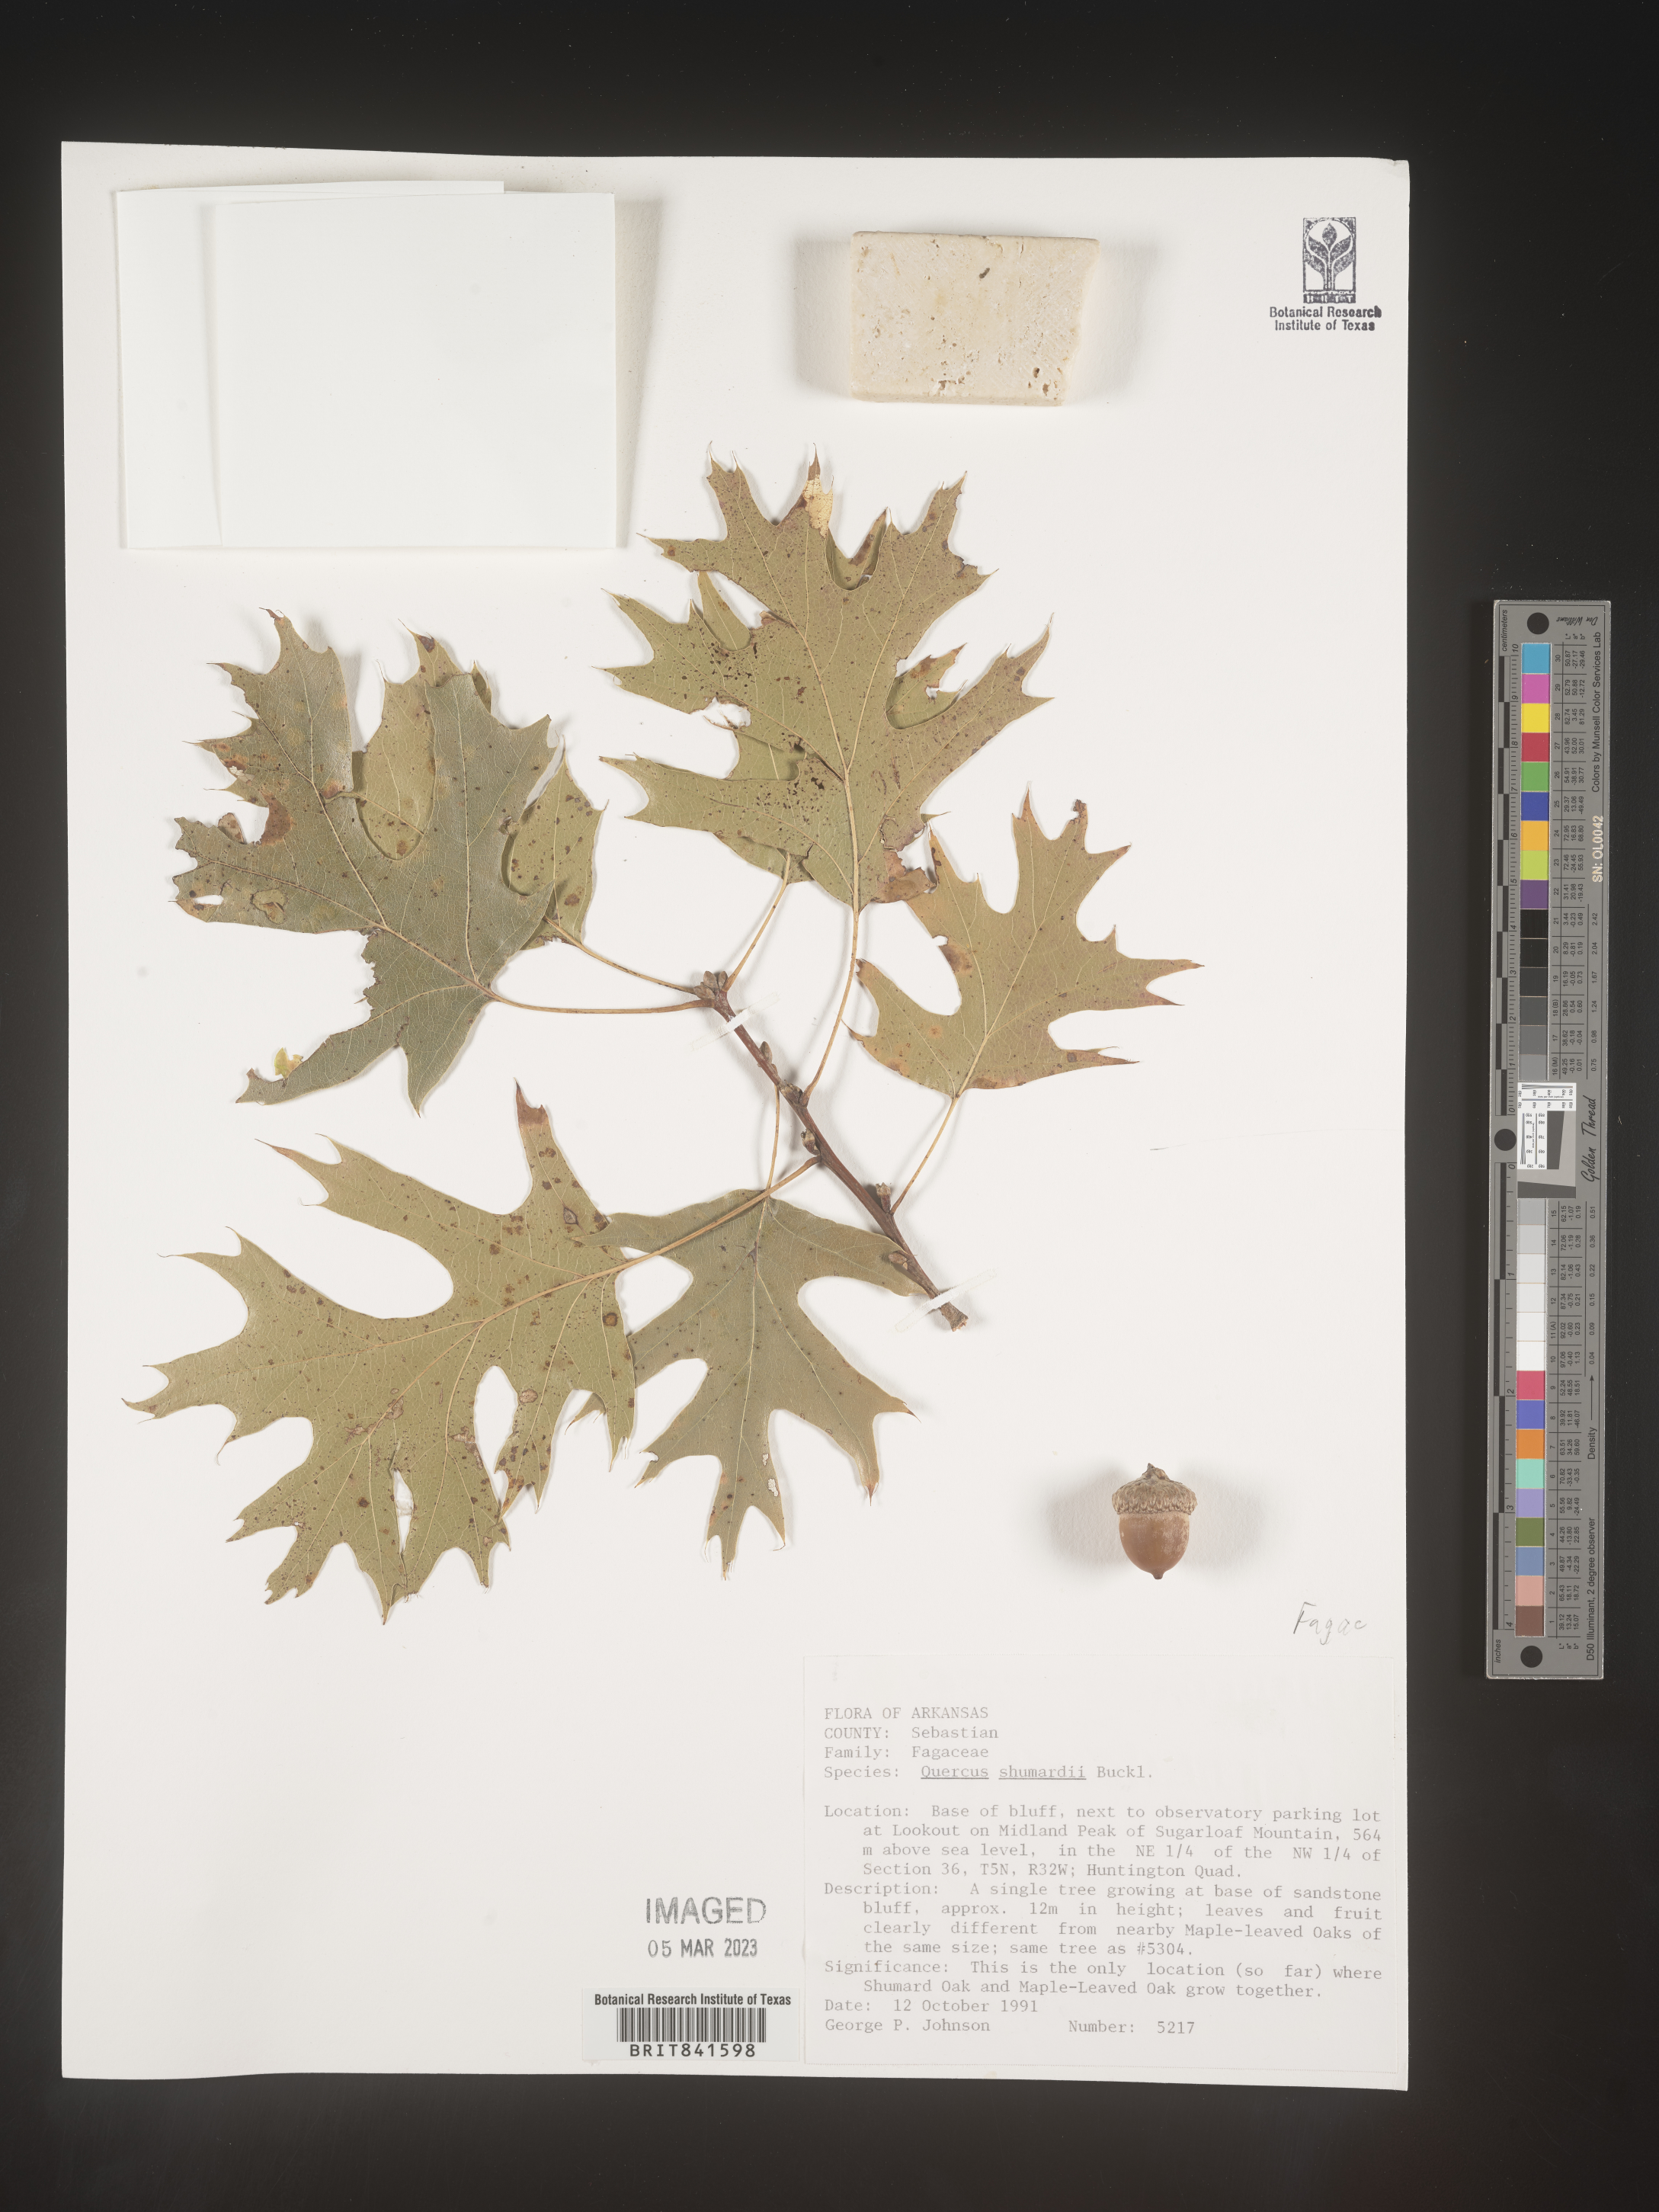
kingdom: Plantae
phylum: Tracheophyta
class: Magnoliopsida
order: Fagales
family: Fagaceae
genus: Quercus
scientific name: Quercus shumardii
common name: Shumard oak
